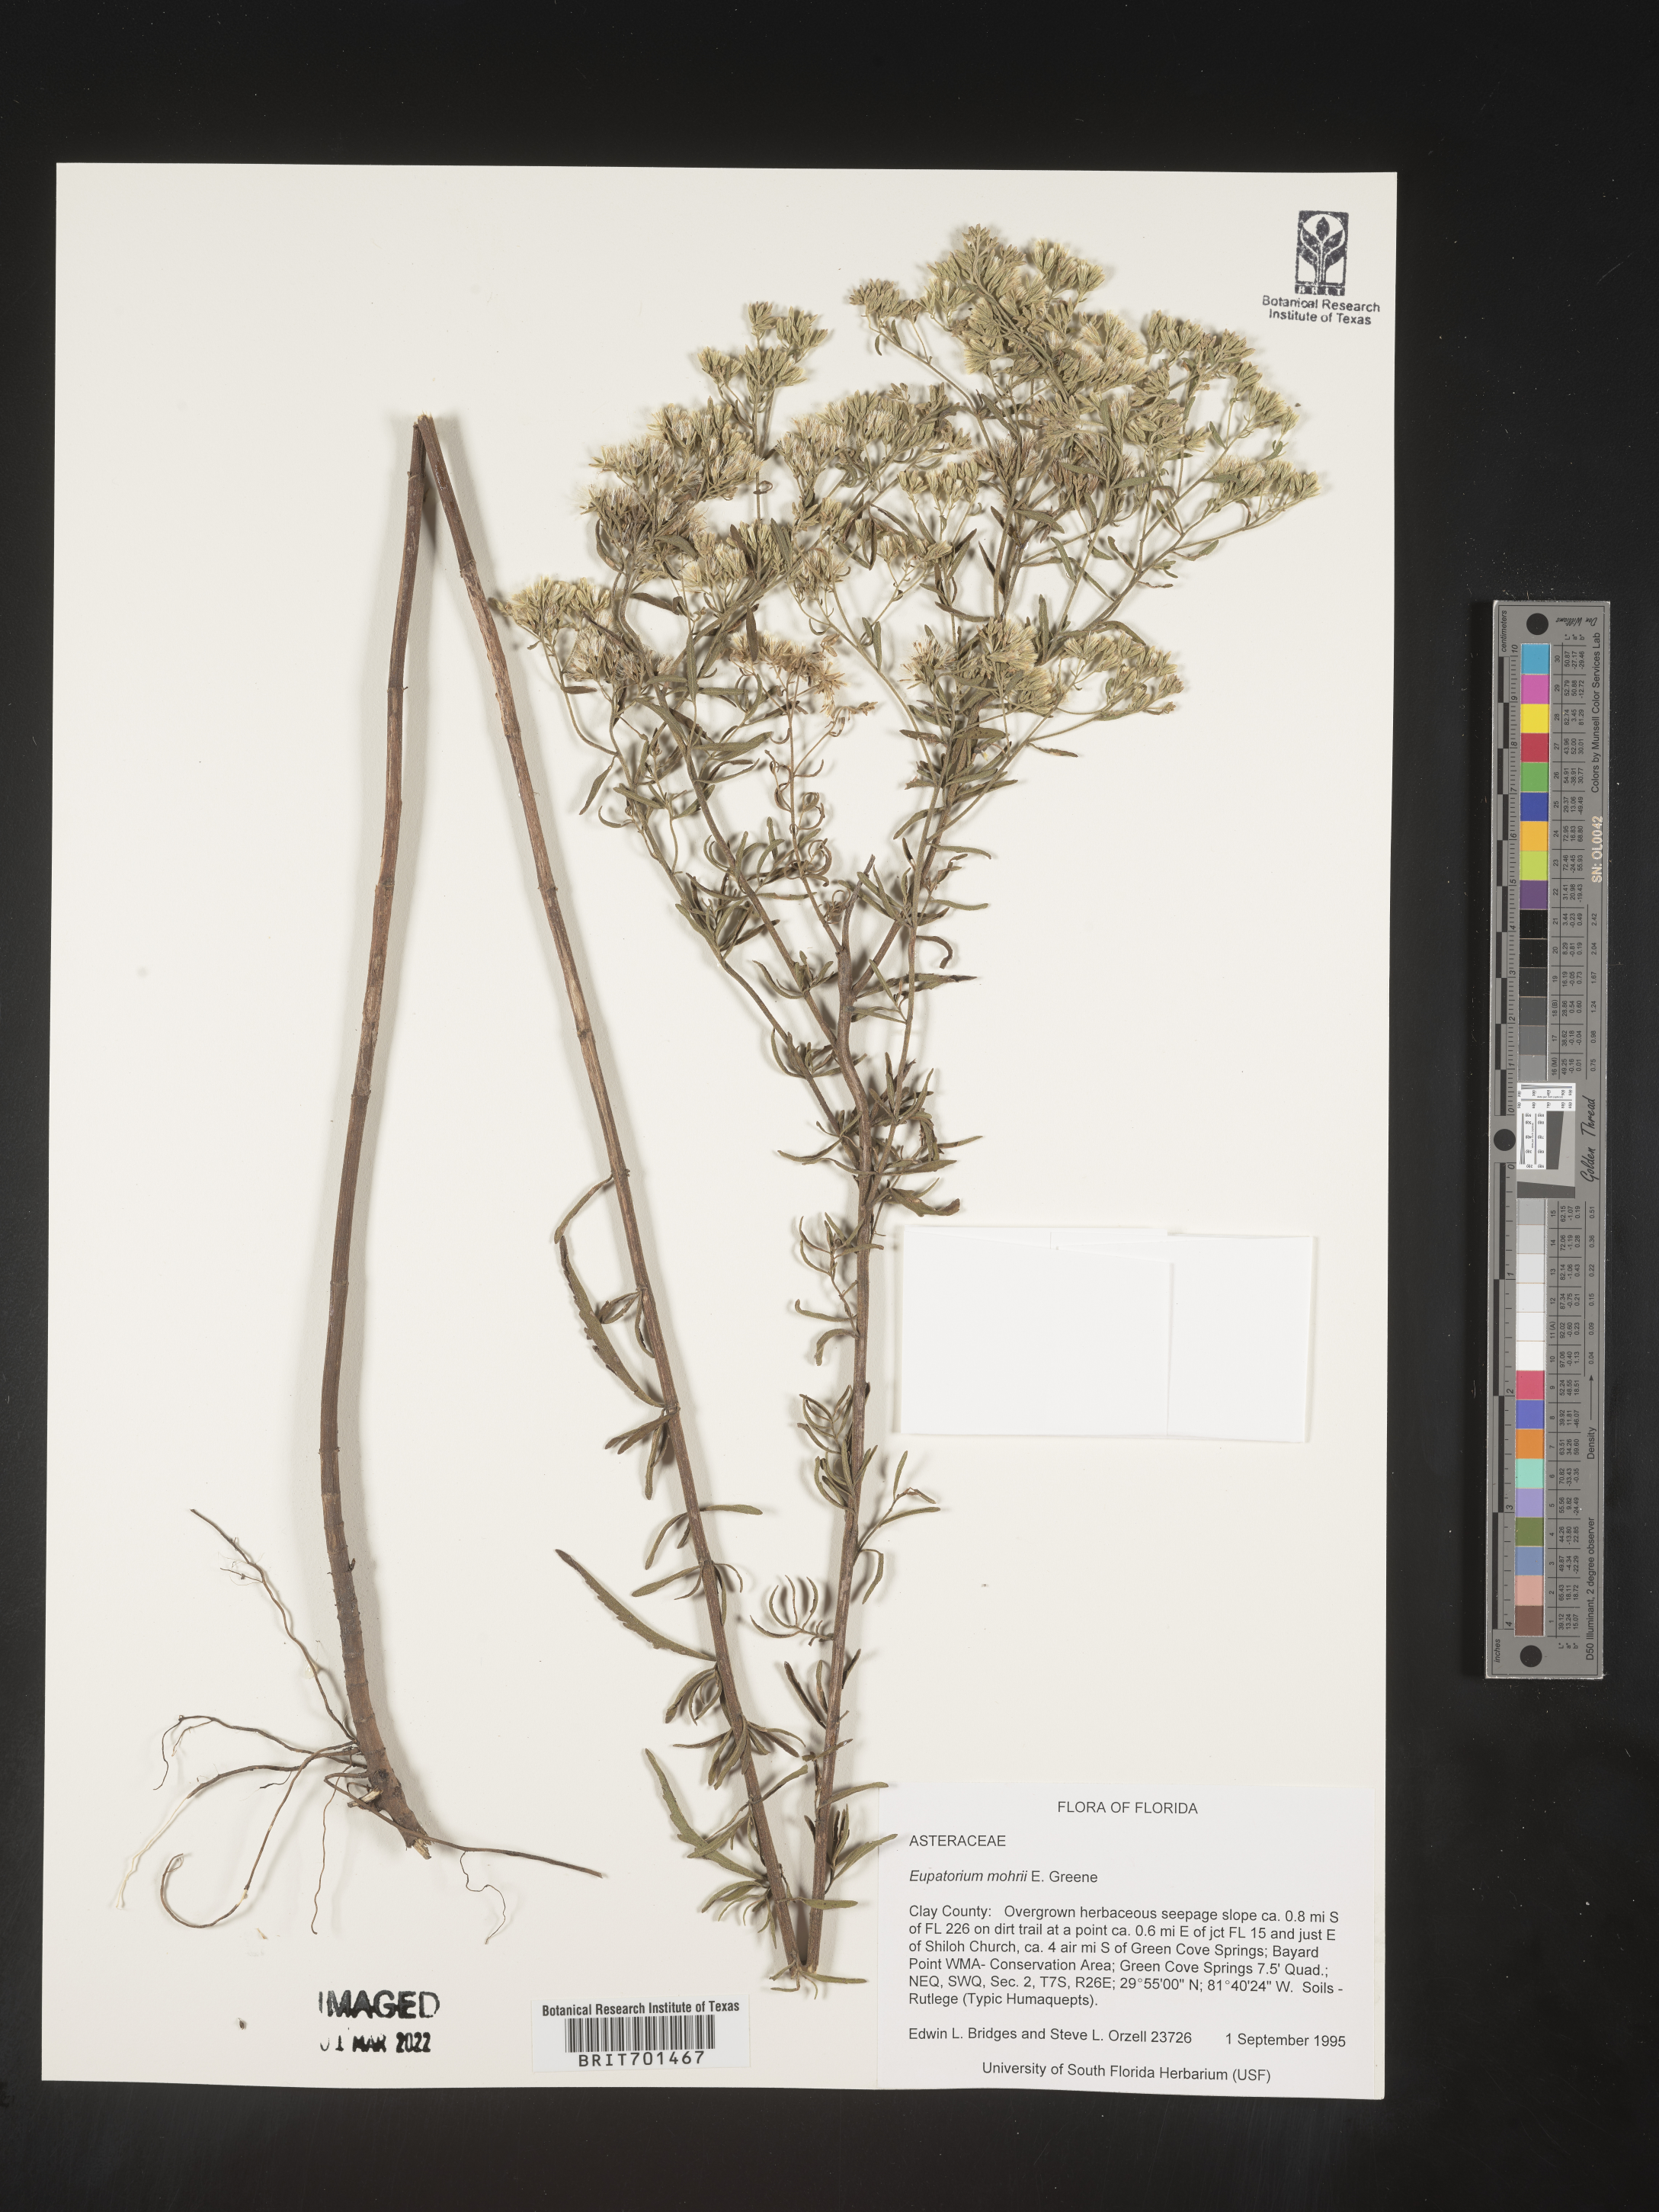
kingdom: Plantae
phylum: Tracheophyta
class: Magnoliopsida
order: Asterales
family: Asteraceae
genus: Eupatorium
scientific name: Eupatorium mohrii
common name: Mohr's thoroughwort
